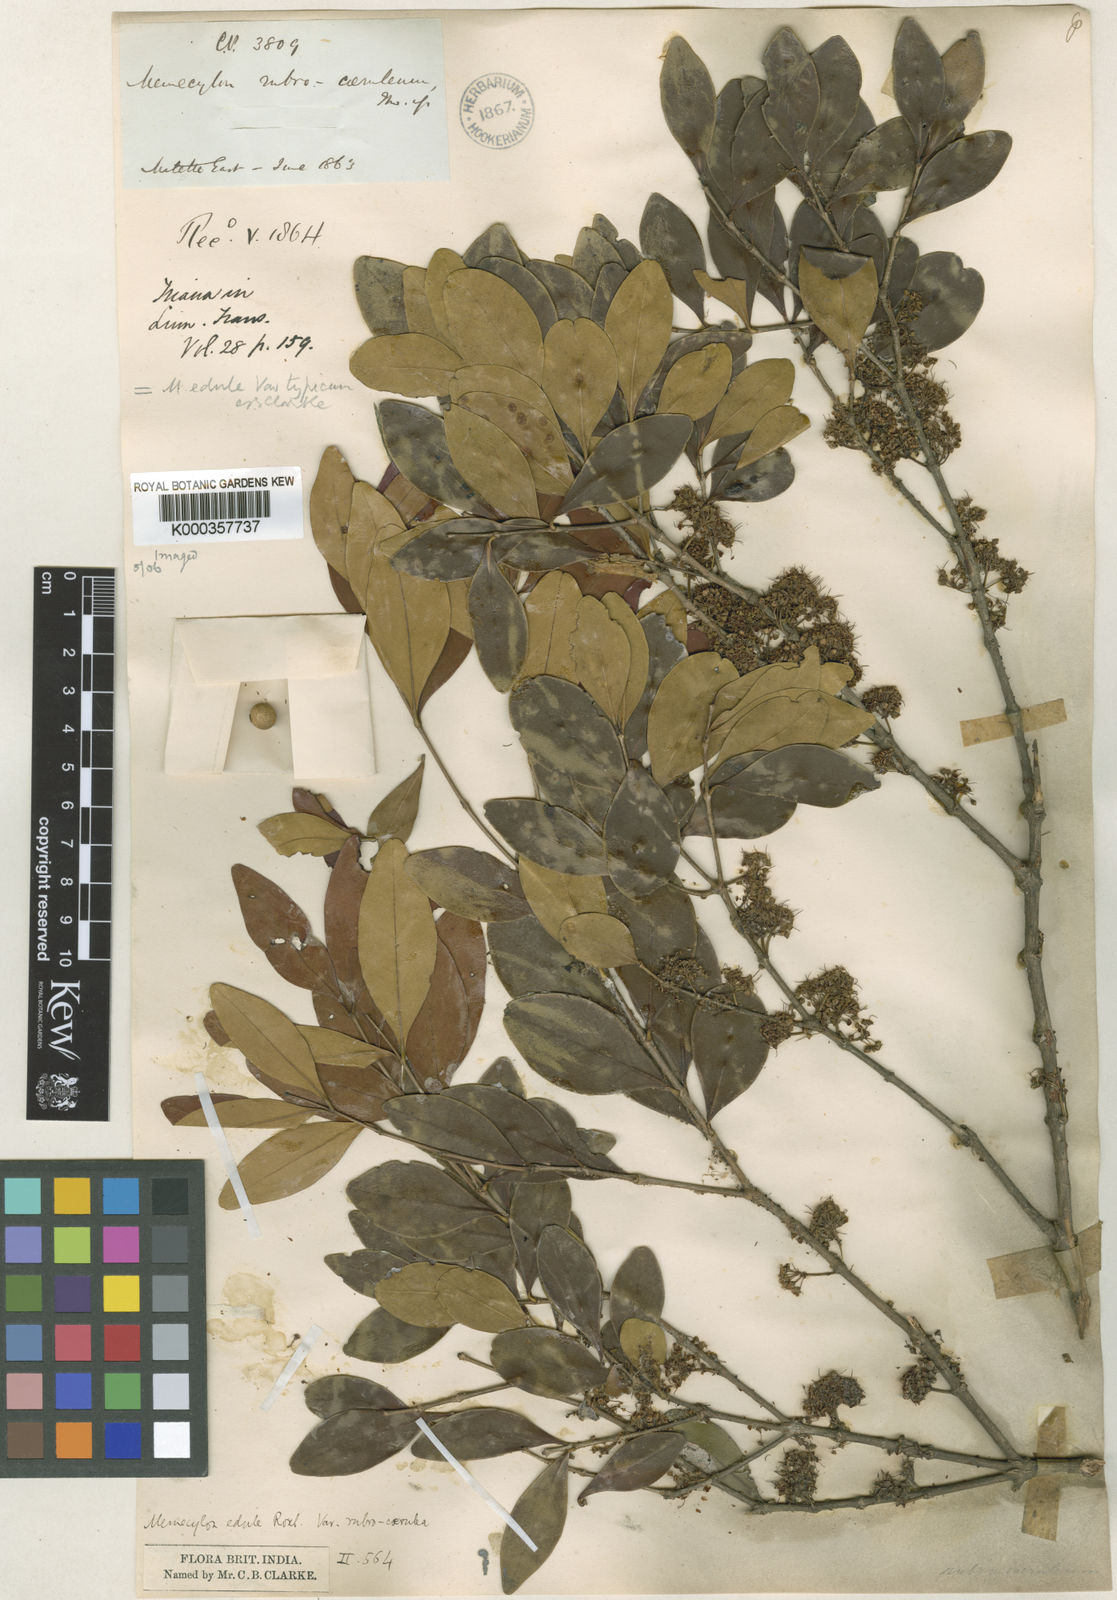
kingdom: Plantae
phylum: Tracheophyta
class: Magnoliopsida
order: Myrtales
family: Melastomataceae
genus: Memecylon
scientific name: Memecylon umbellatum
